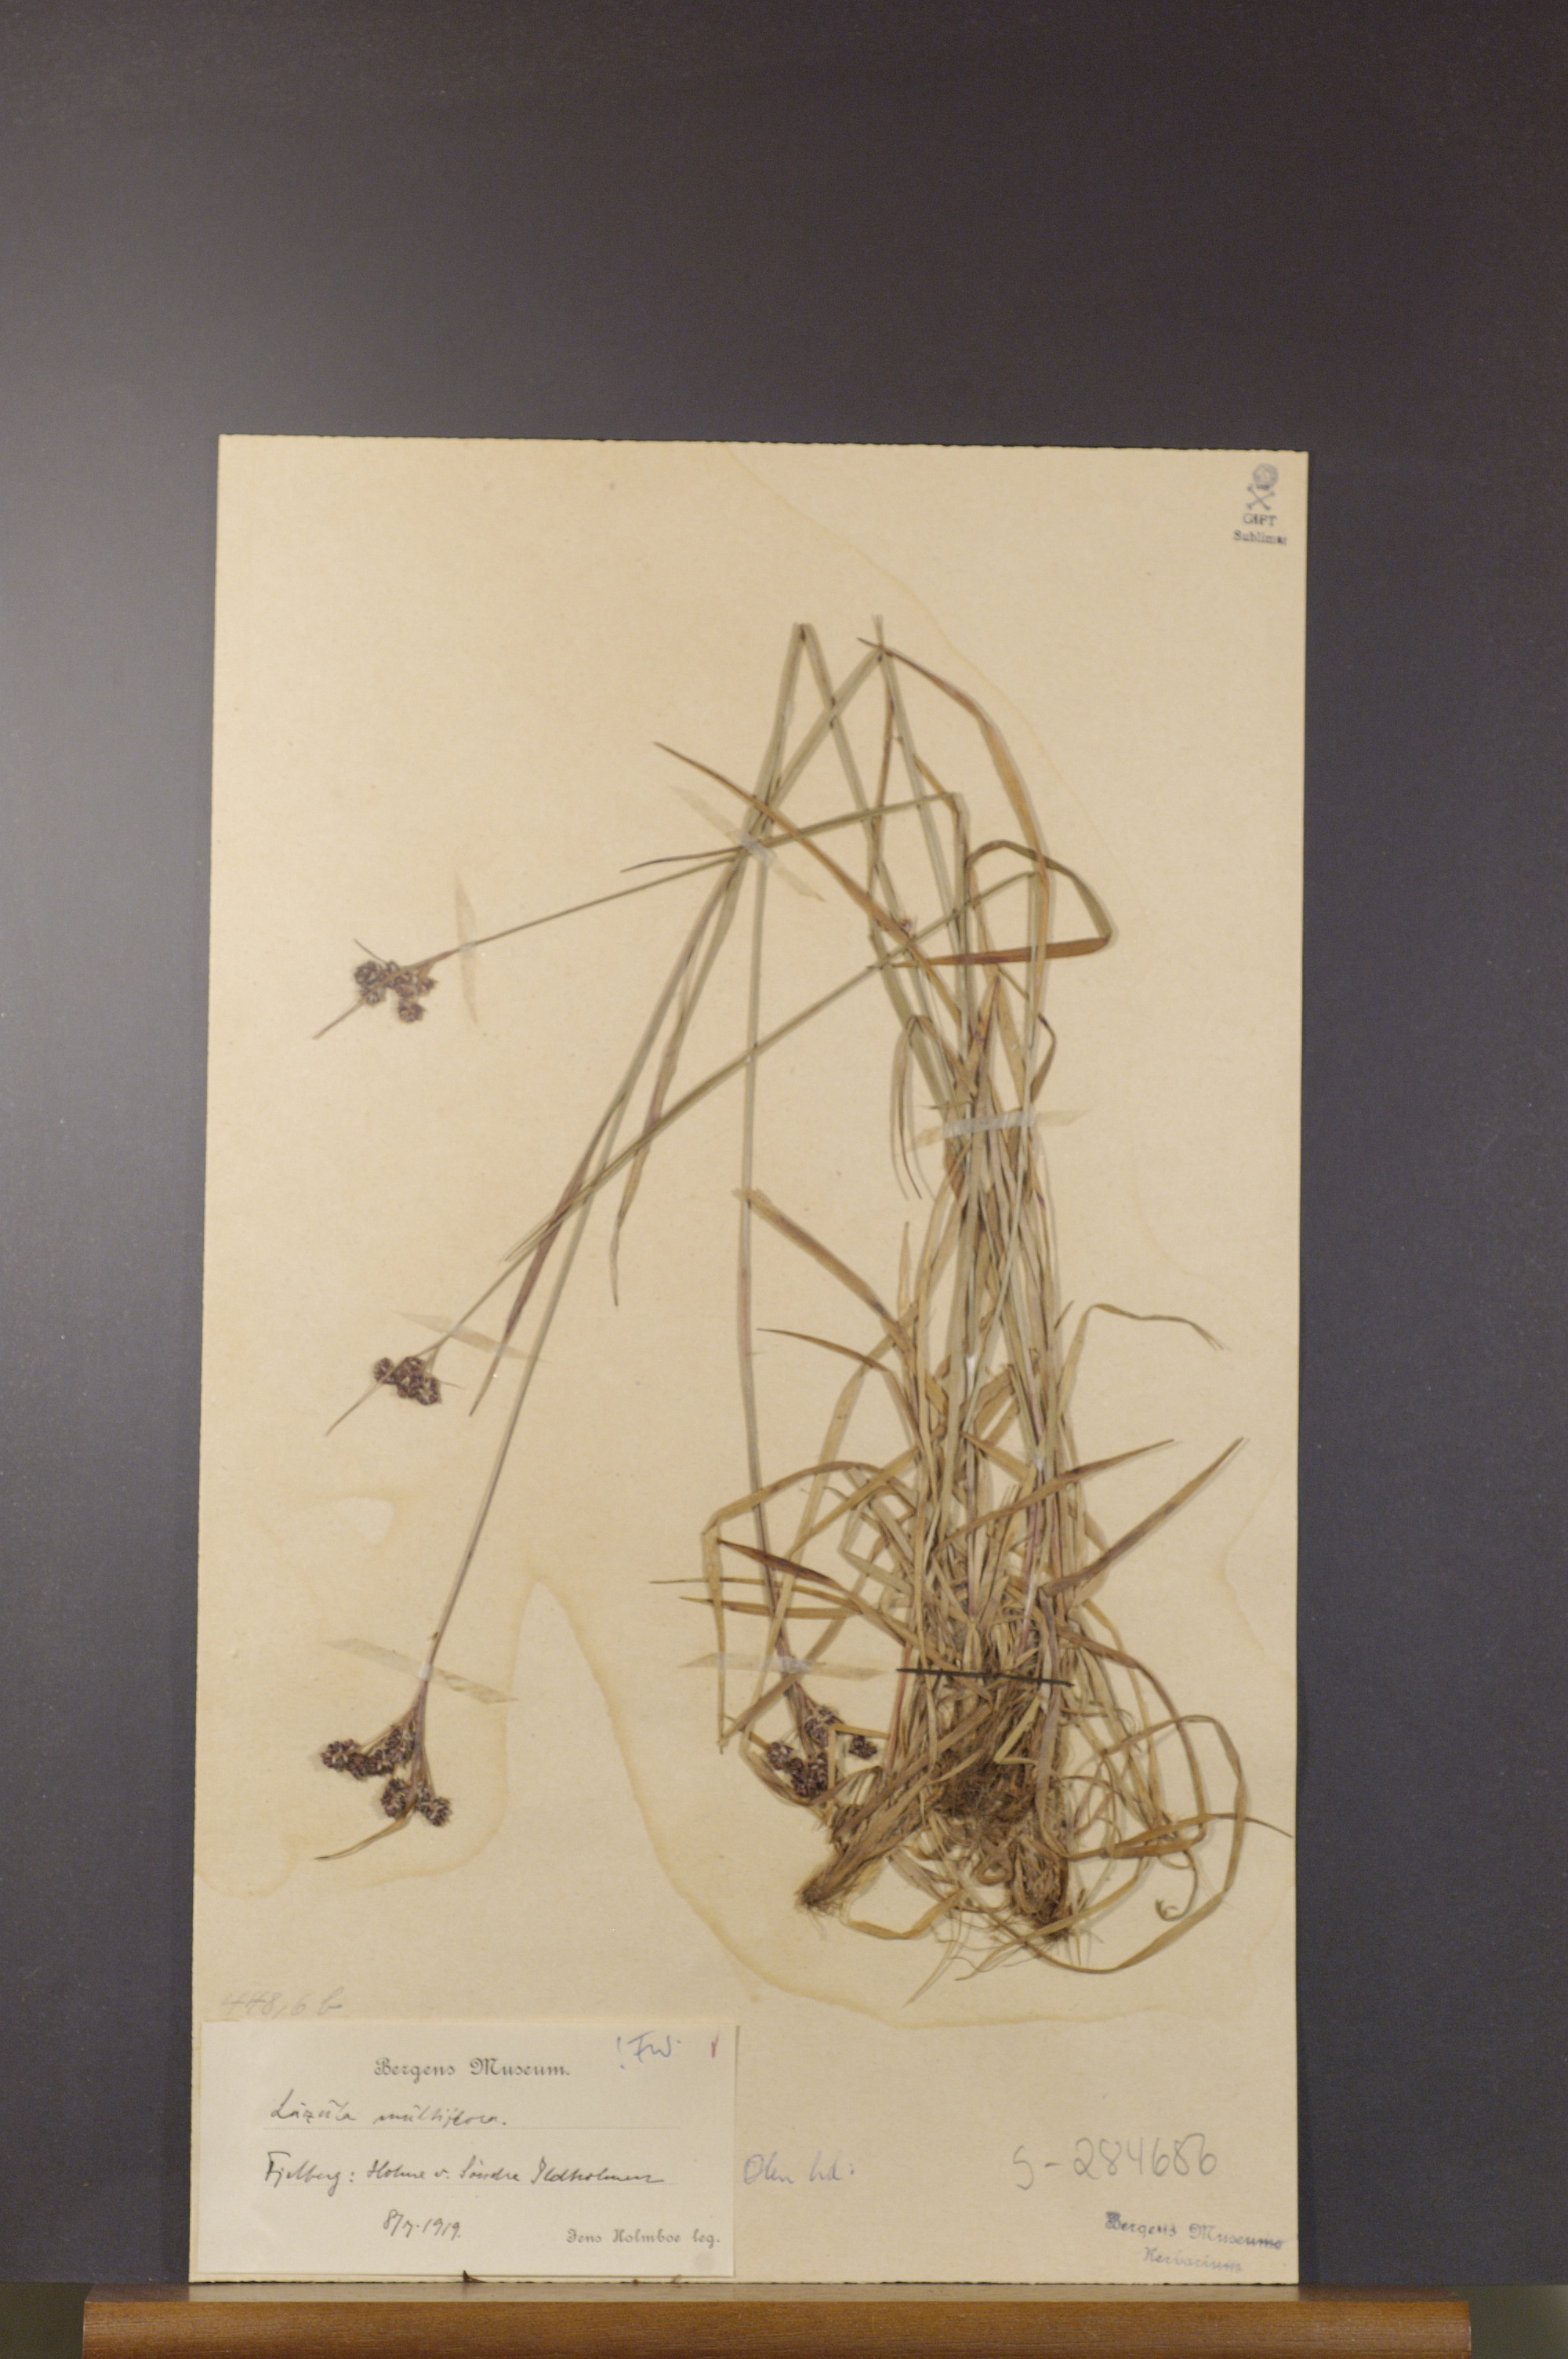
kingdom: Plantae
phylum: Tracheophyta
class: Liliopsida
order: Poales
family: Juncaceae
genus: Luzula
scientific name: Luzula multiflora
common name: Heath wood-rush
